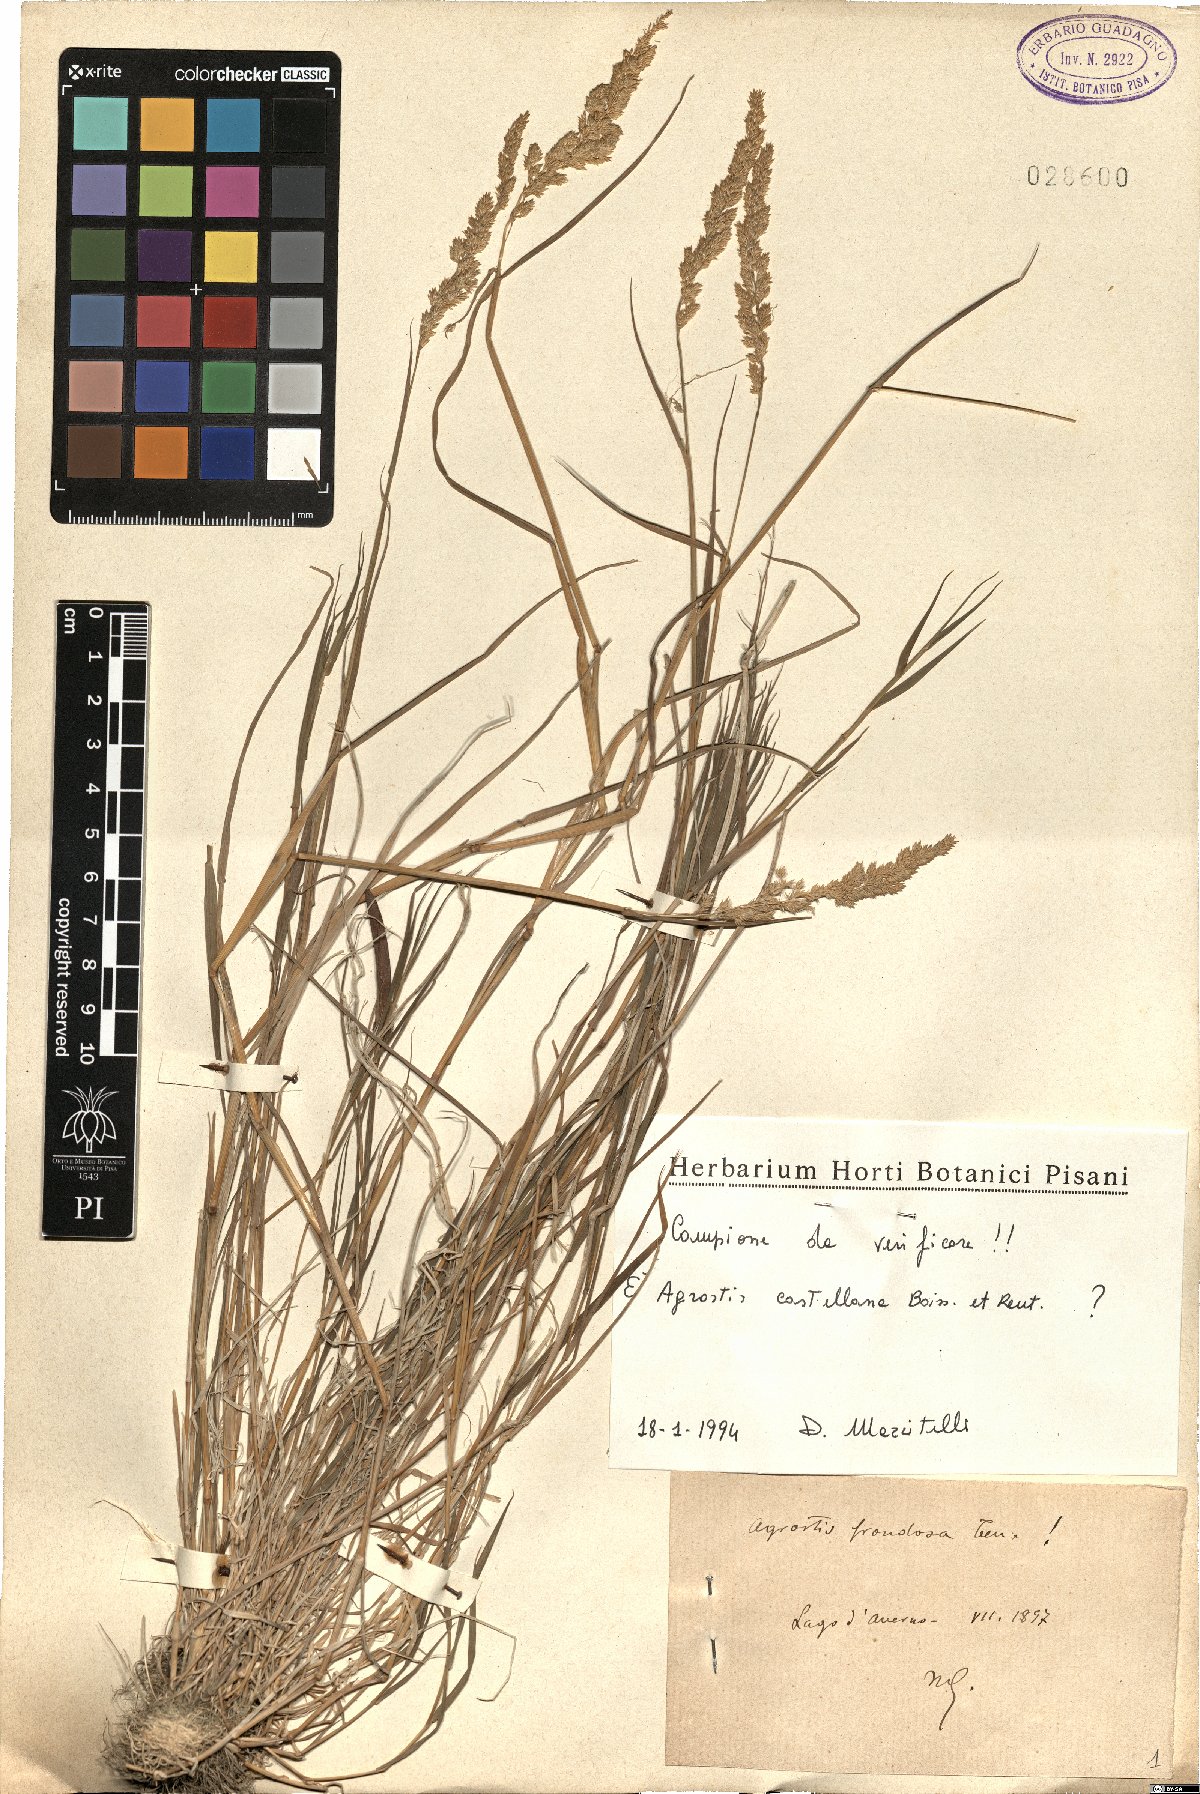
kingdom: Plantae
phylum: Tracheophyta
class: Liliopsida
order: Poales
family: Poaceae
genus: Agrostis
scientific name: Agrostis castellana
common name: Highland bent
